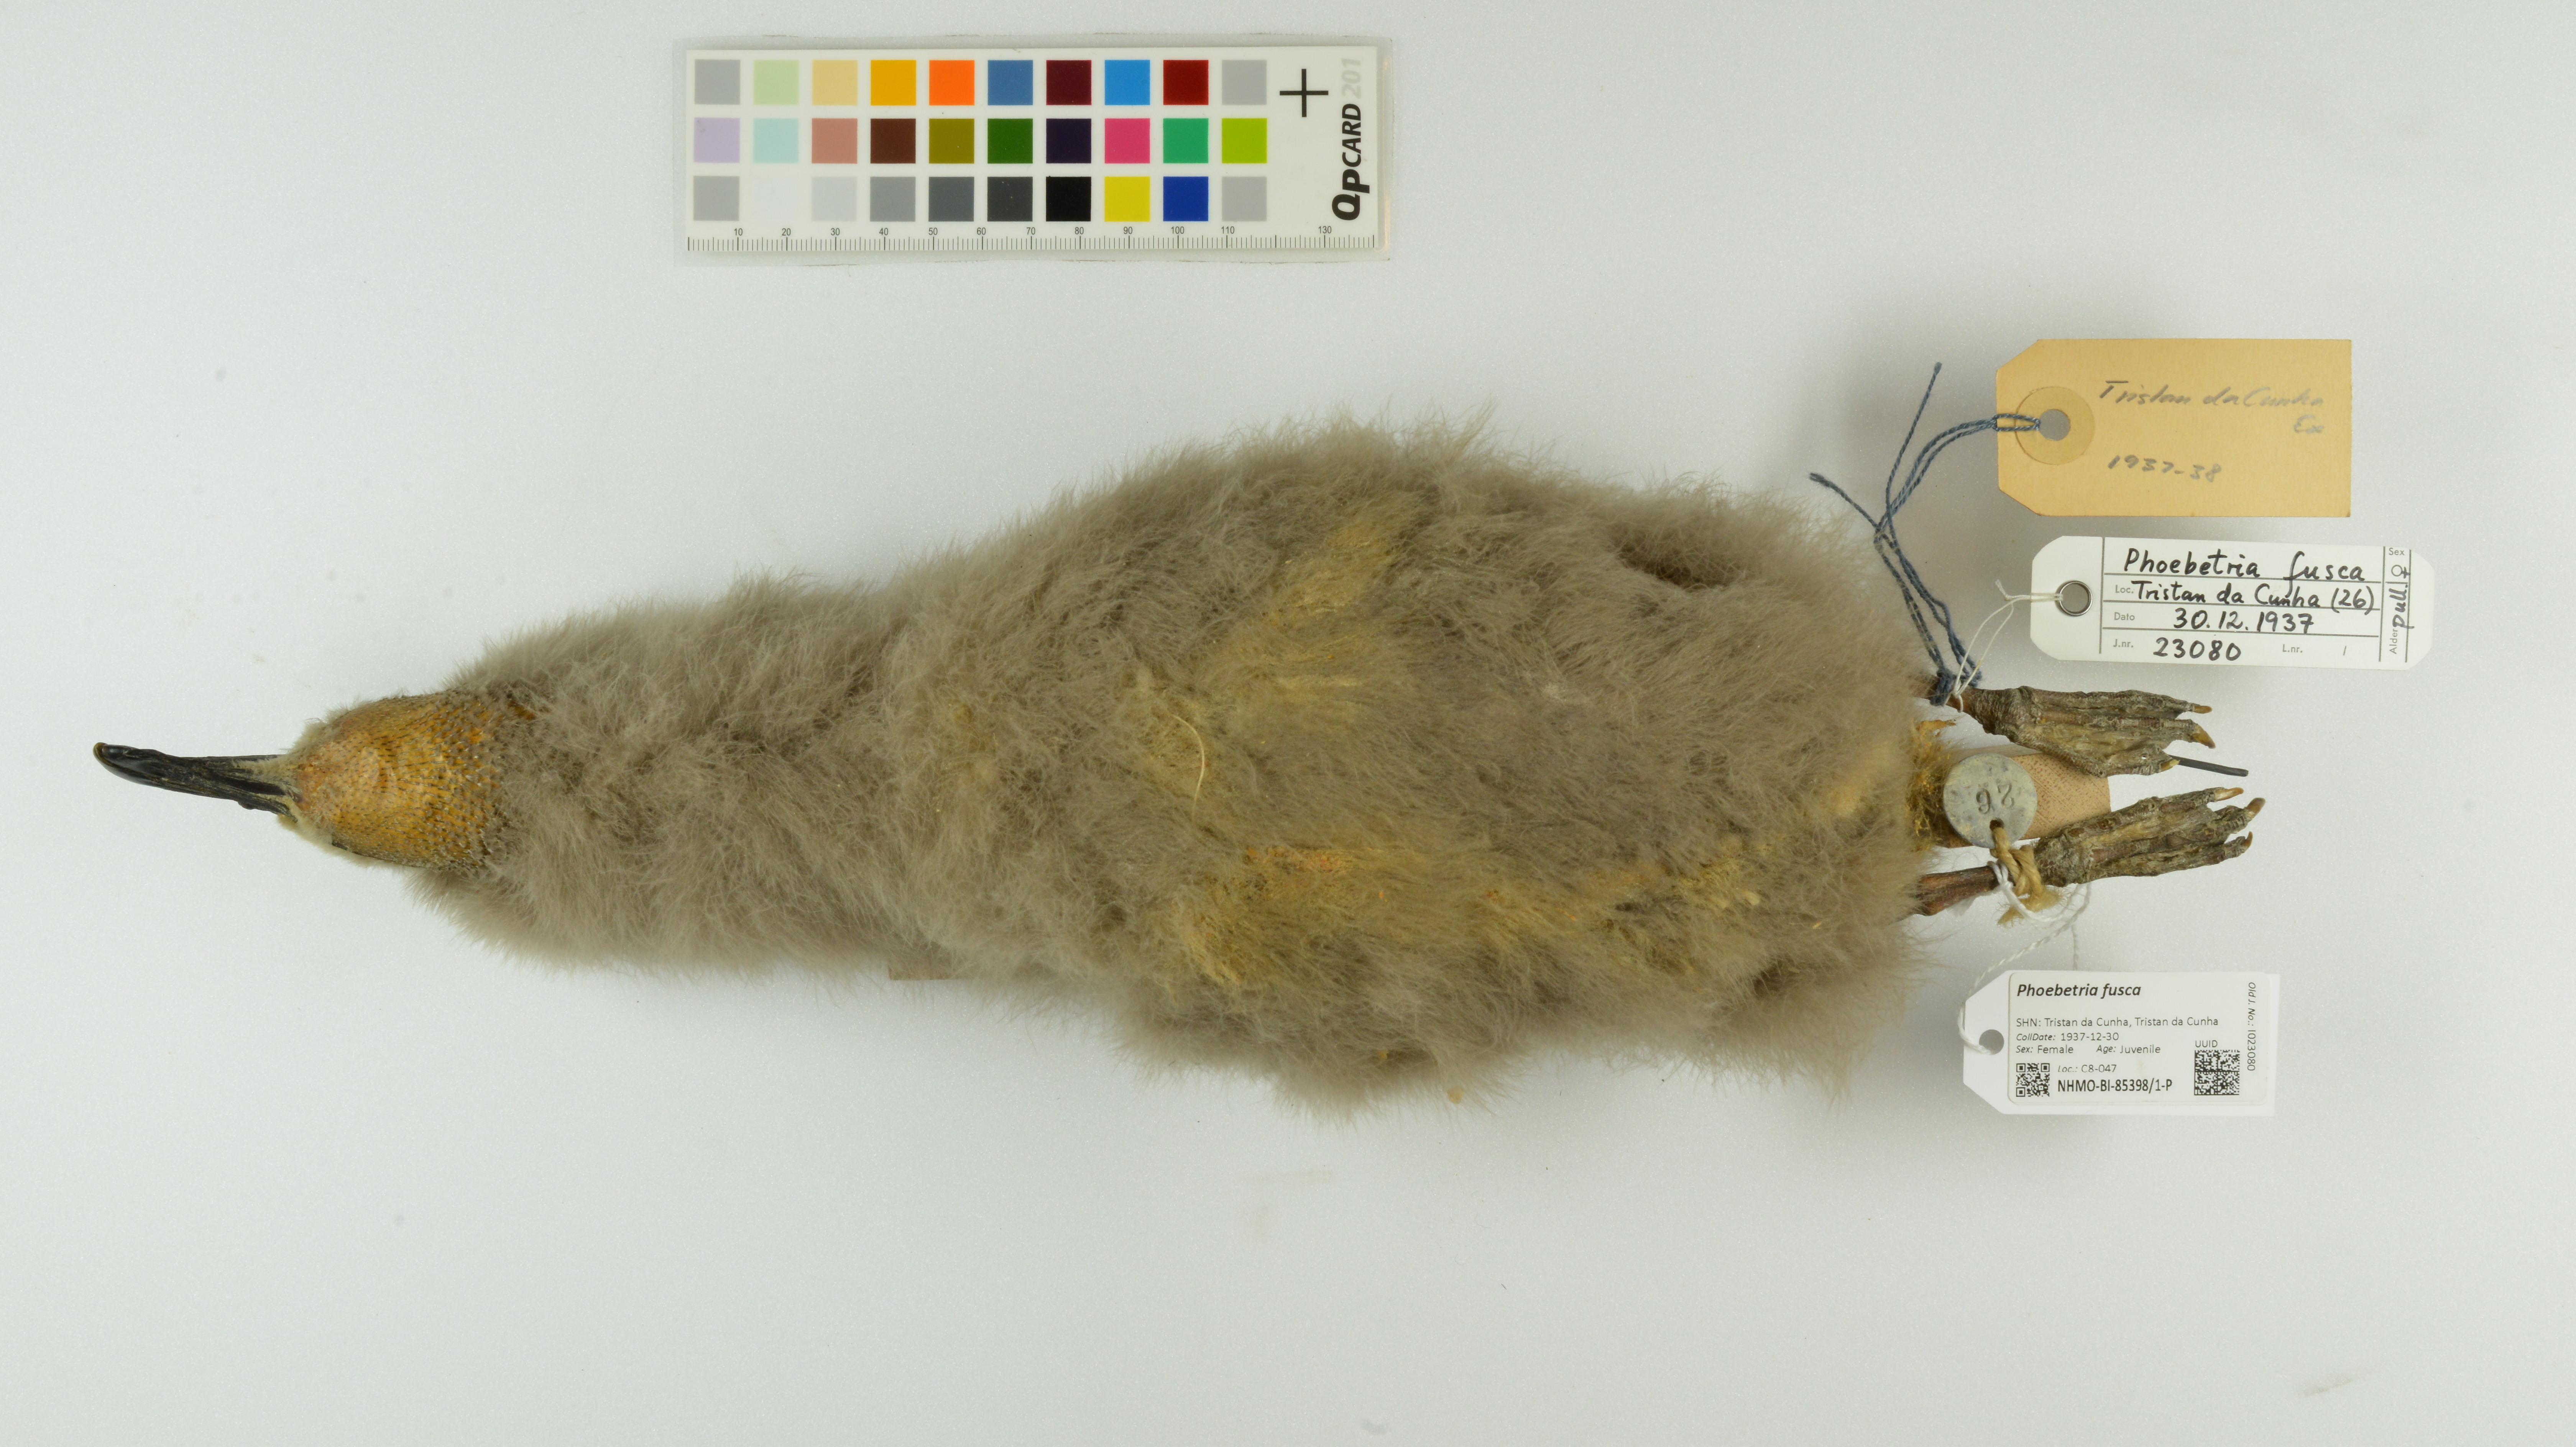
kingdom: Animalia
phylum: Chordata
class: Aves
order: Procellariiformes
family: Diomedeidae
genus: Phoebetria
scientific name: Phoebetria fusca
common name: Sooty albatross
